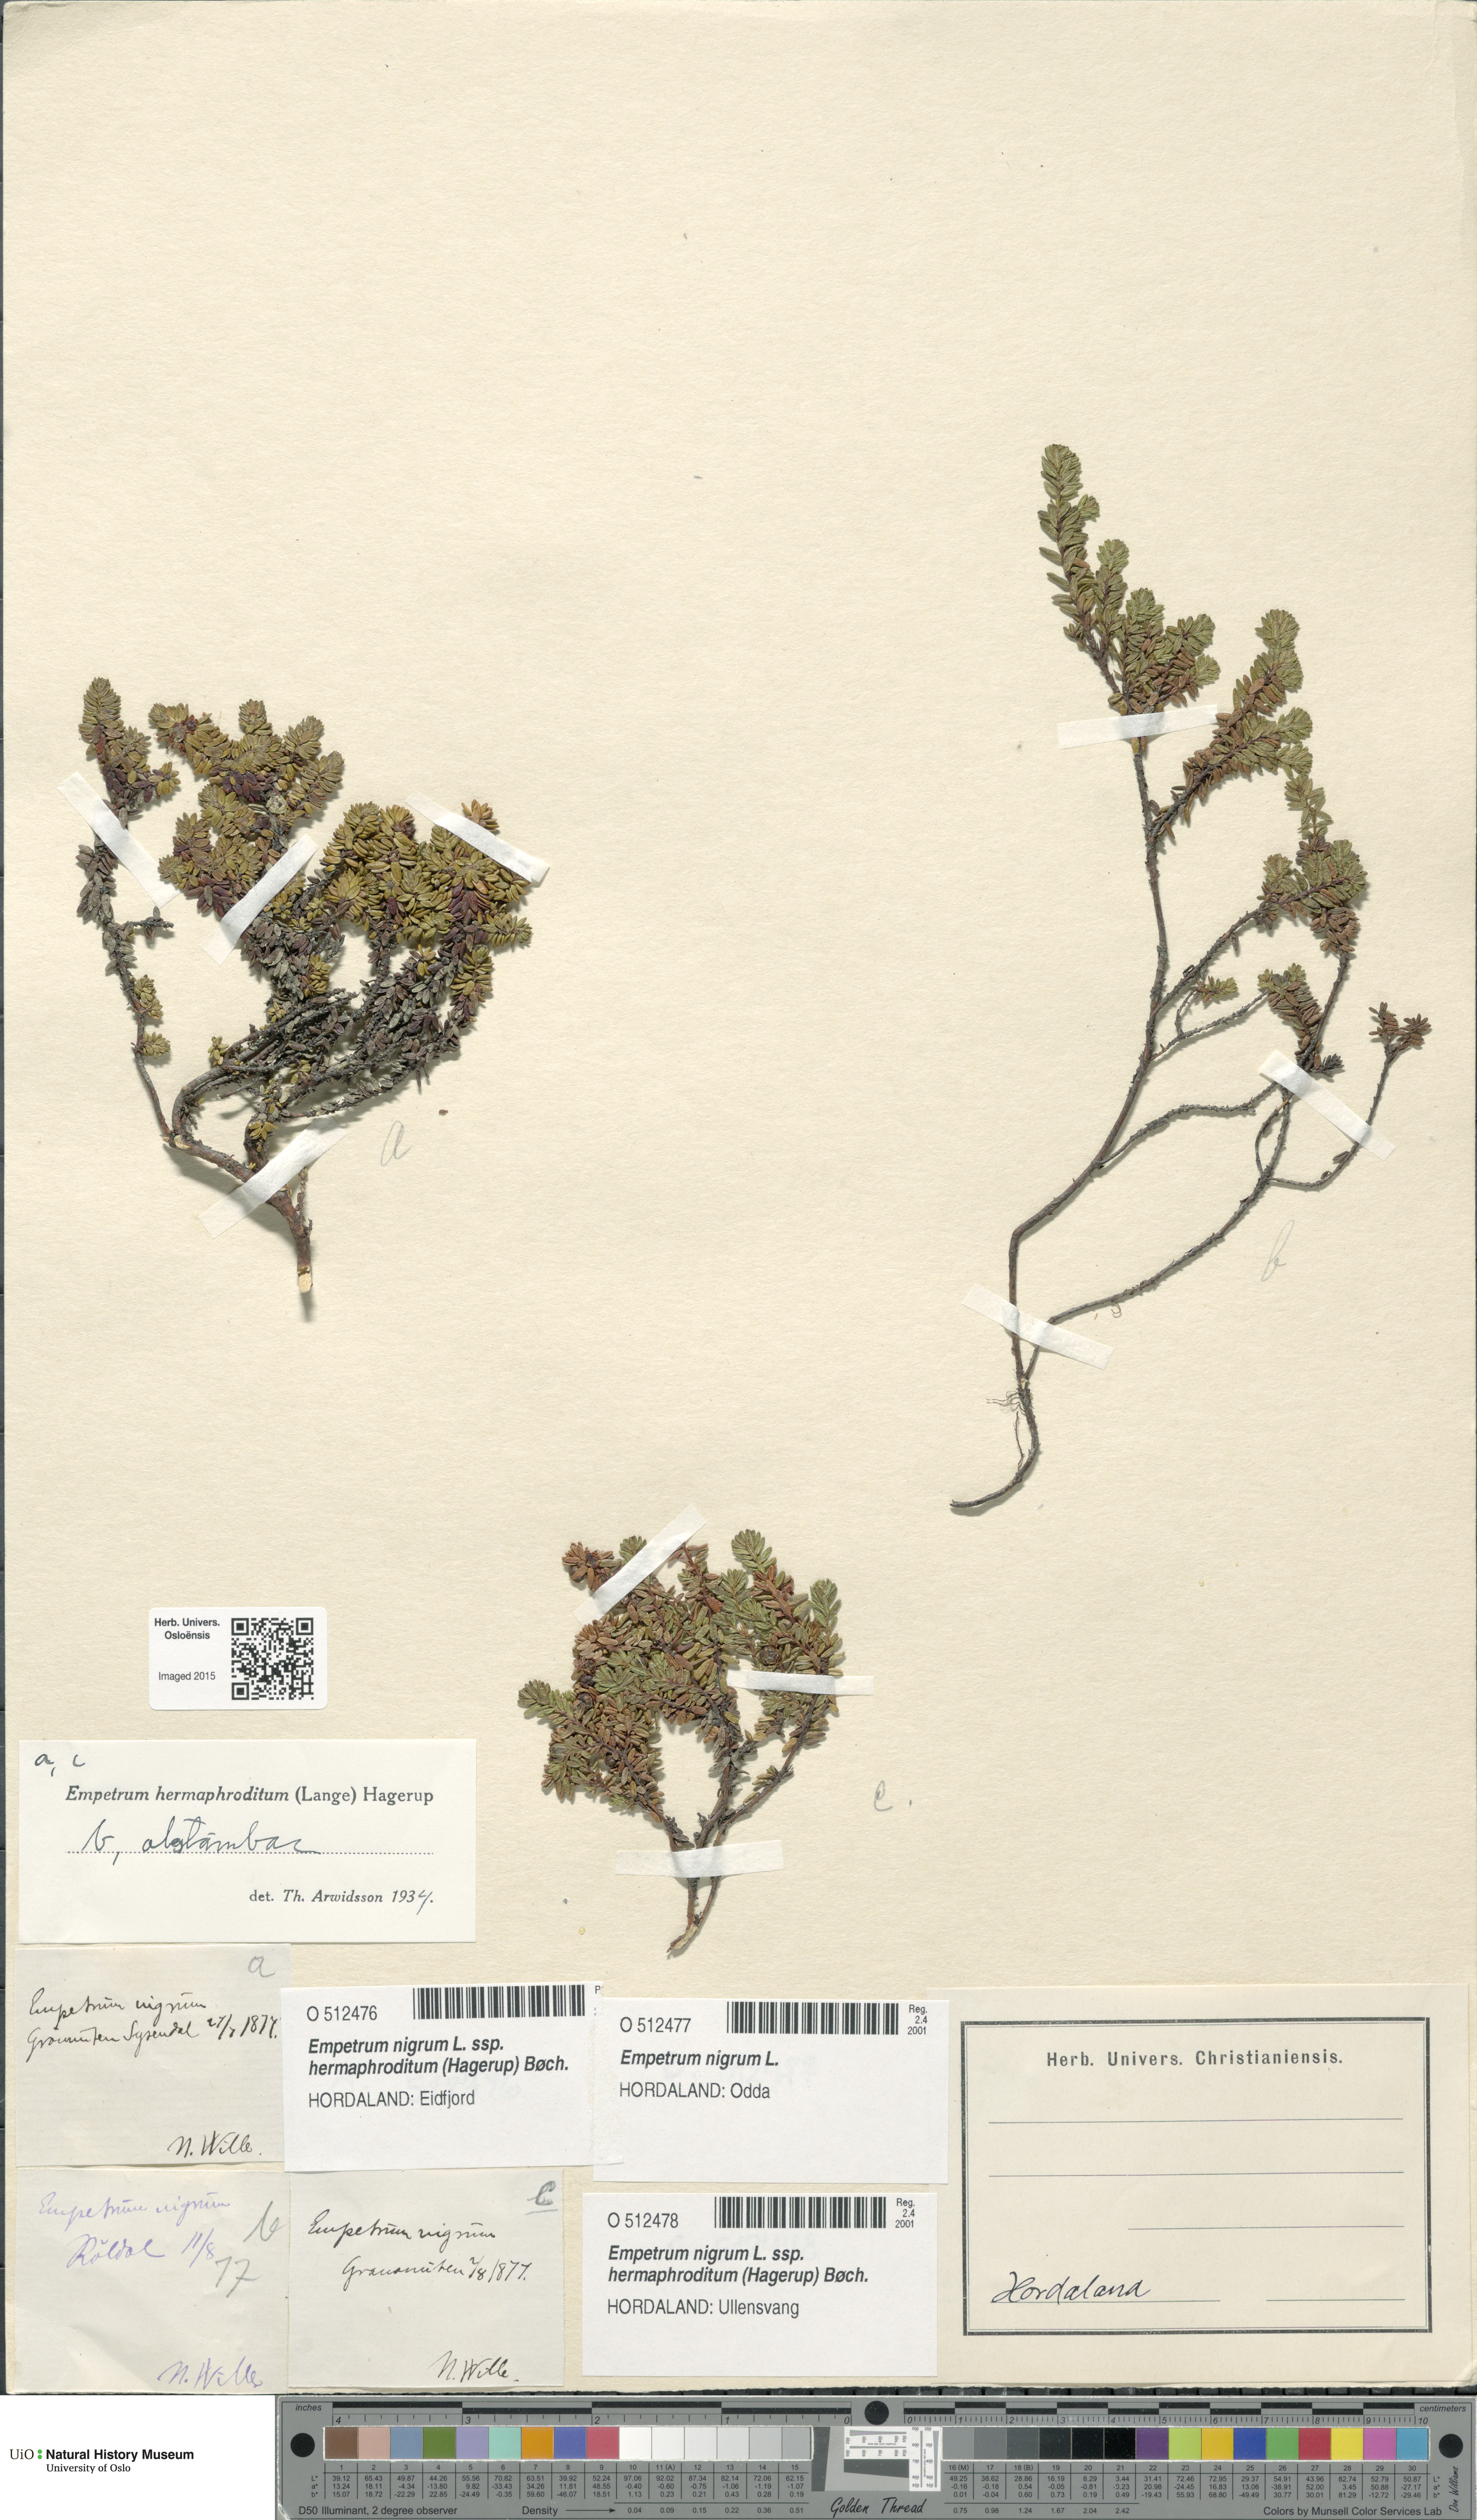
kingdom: Plantae
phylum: Tracheophyta
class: Magnoliopsida
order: Ericales
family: Ericaceae
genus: Empetrum
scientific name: Empetrum hermaphroditum
